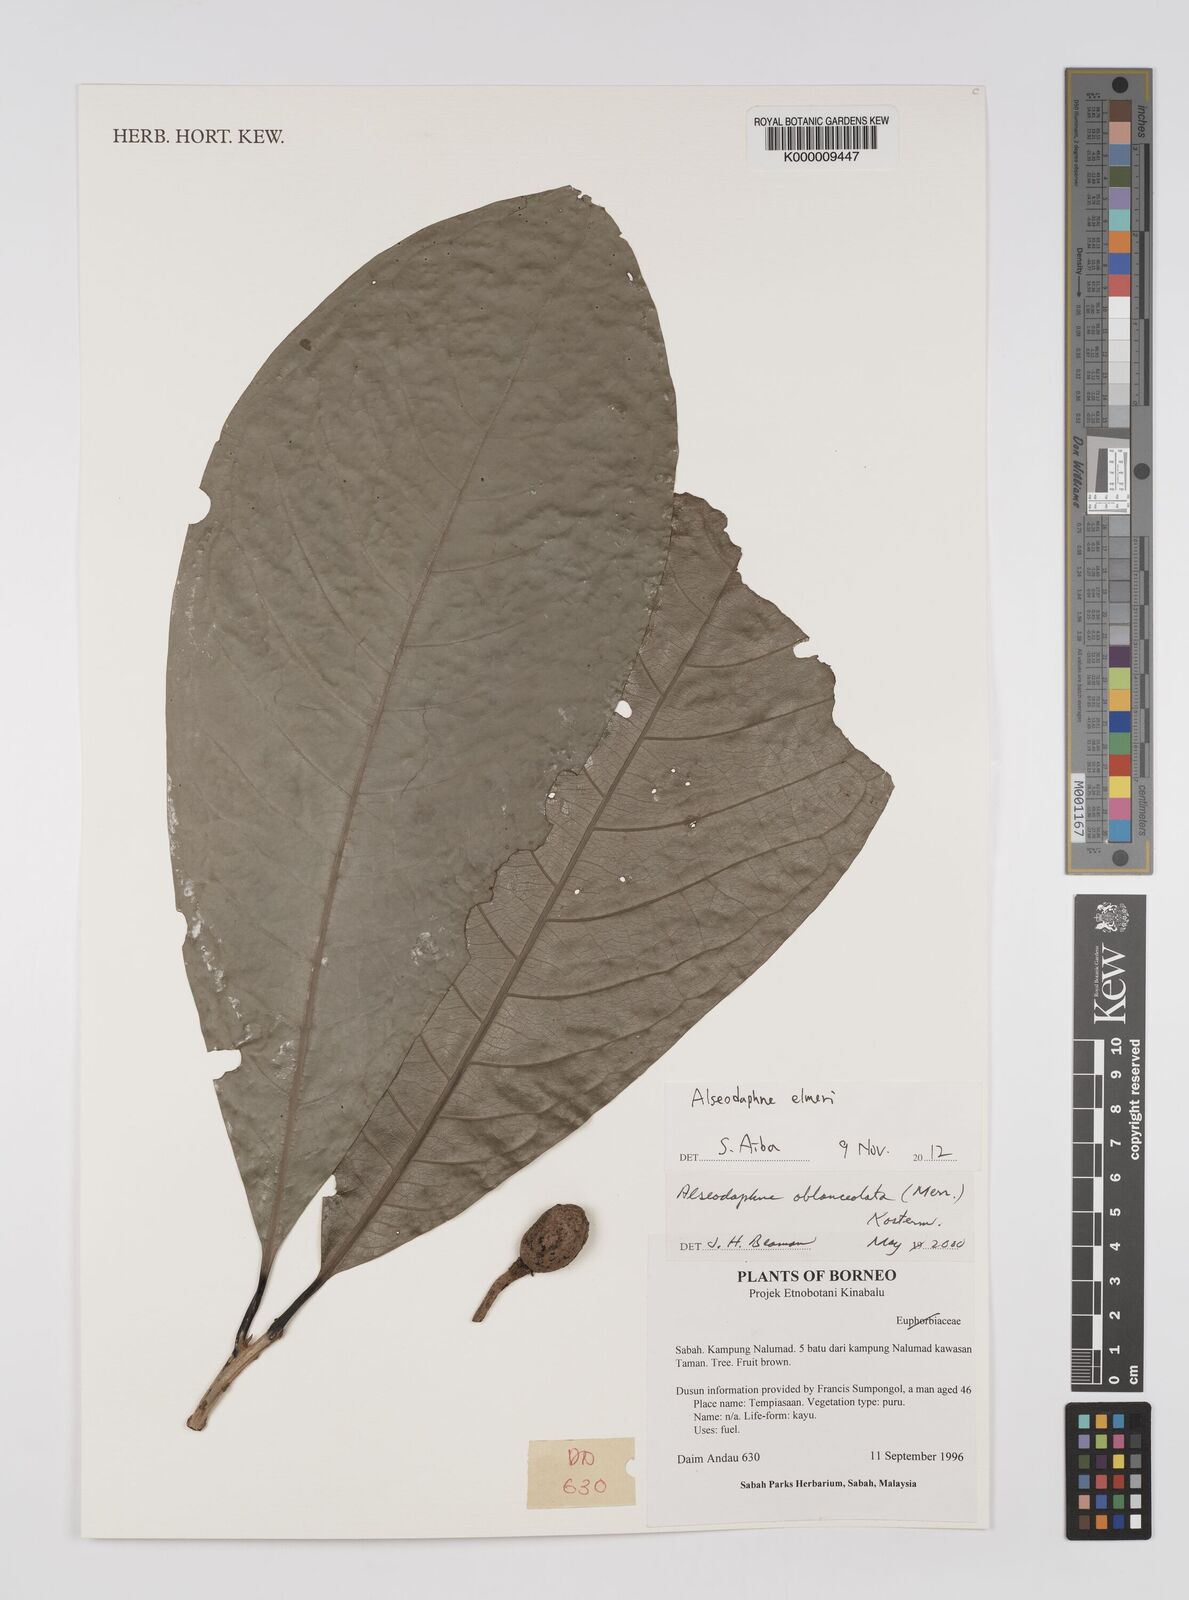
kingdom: Plantae
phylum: Tracheophyta
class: Magnoliopsida
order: Laurales
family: Lauraceae
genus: Alseodaphne
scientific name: Alseodaphne oblanceolata
